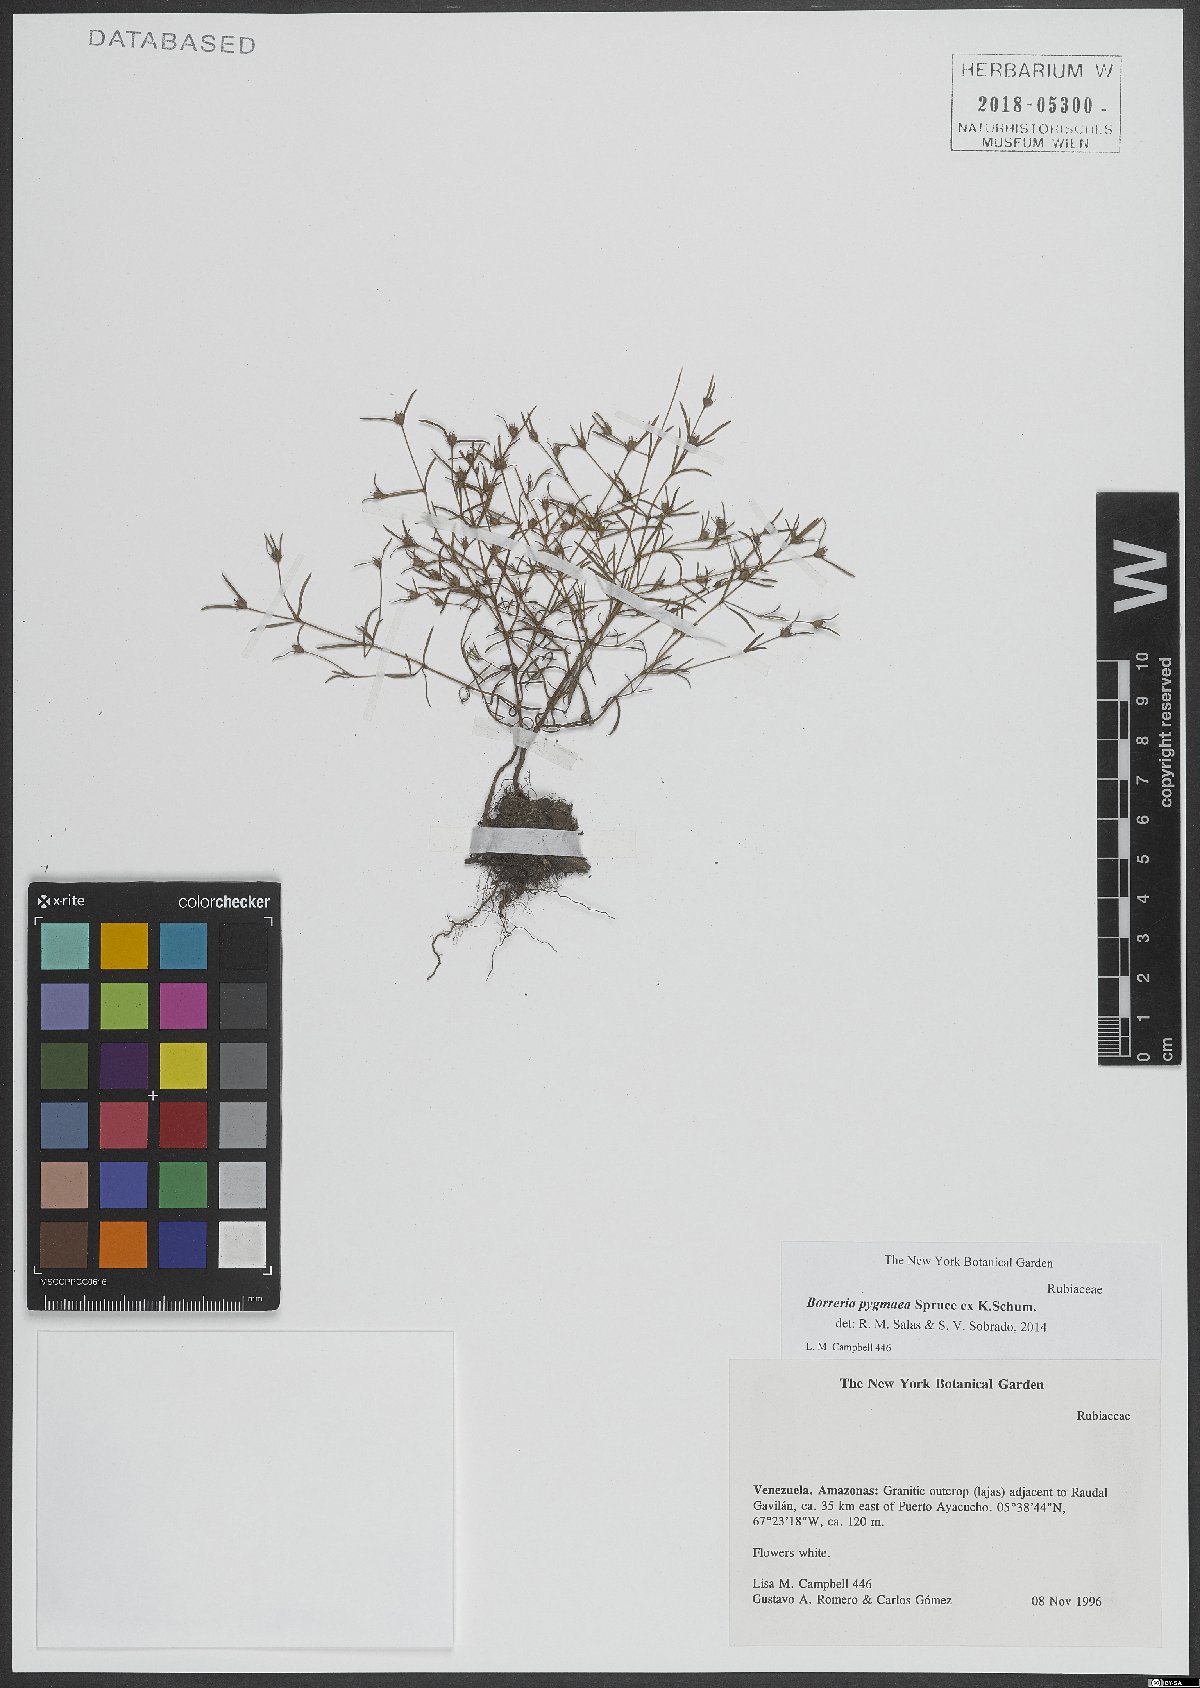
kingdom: Plantae
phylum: Tracheophyta
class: Magnoliopsida
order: Gentianales
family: Rubiaceae
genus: Spermacoce
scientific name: Spermacoce spruceana
